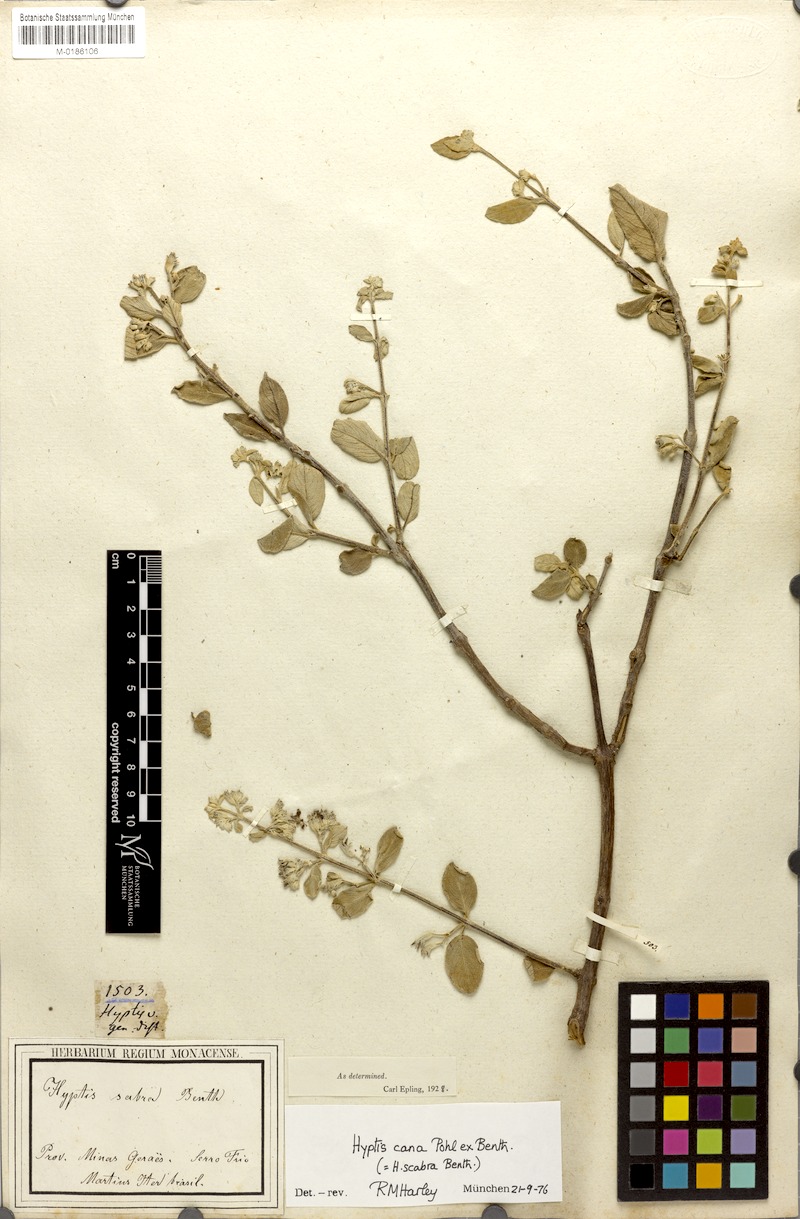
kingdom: Plantae
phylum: Tracheophyta
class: Magnoliopsida
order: Lamiales
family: Lamiaceae
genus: Hyptidendron
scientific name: Hyptidendron canum
